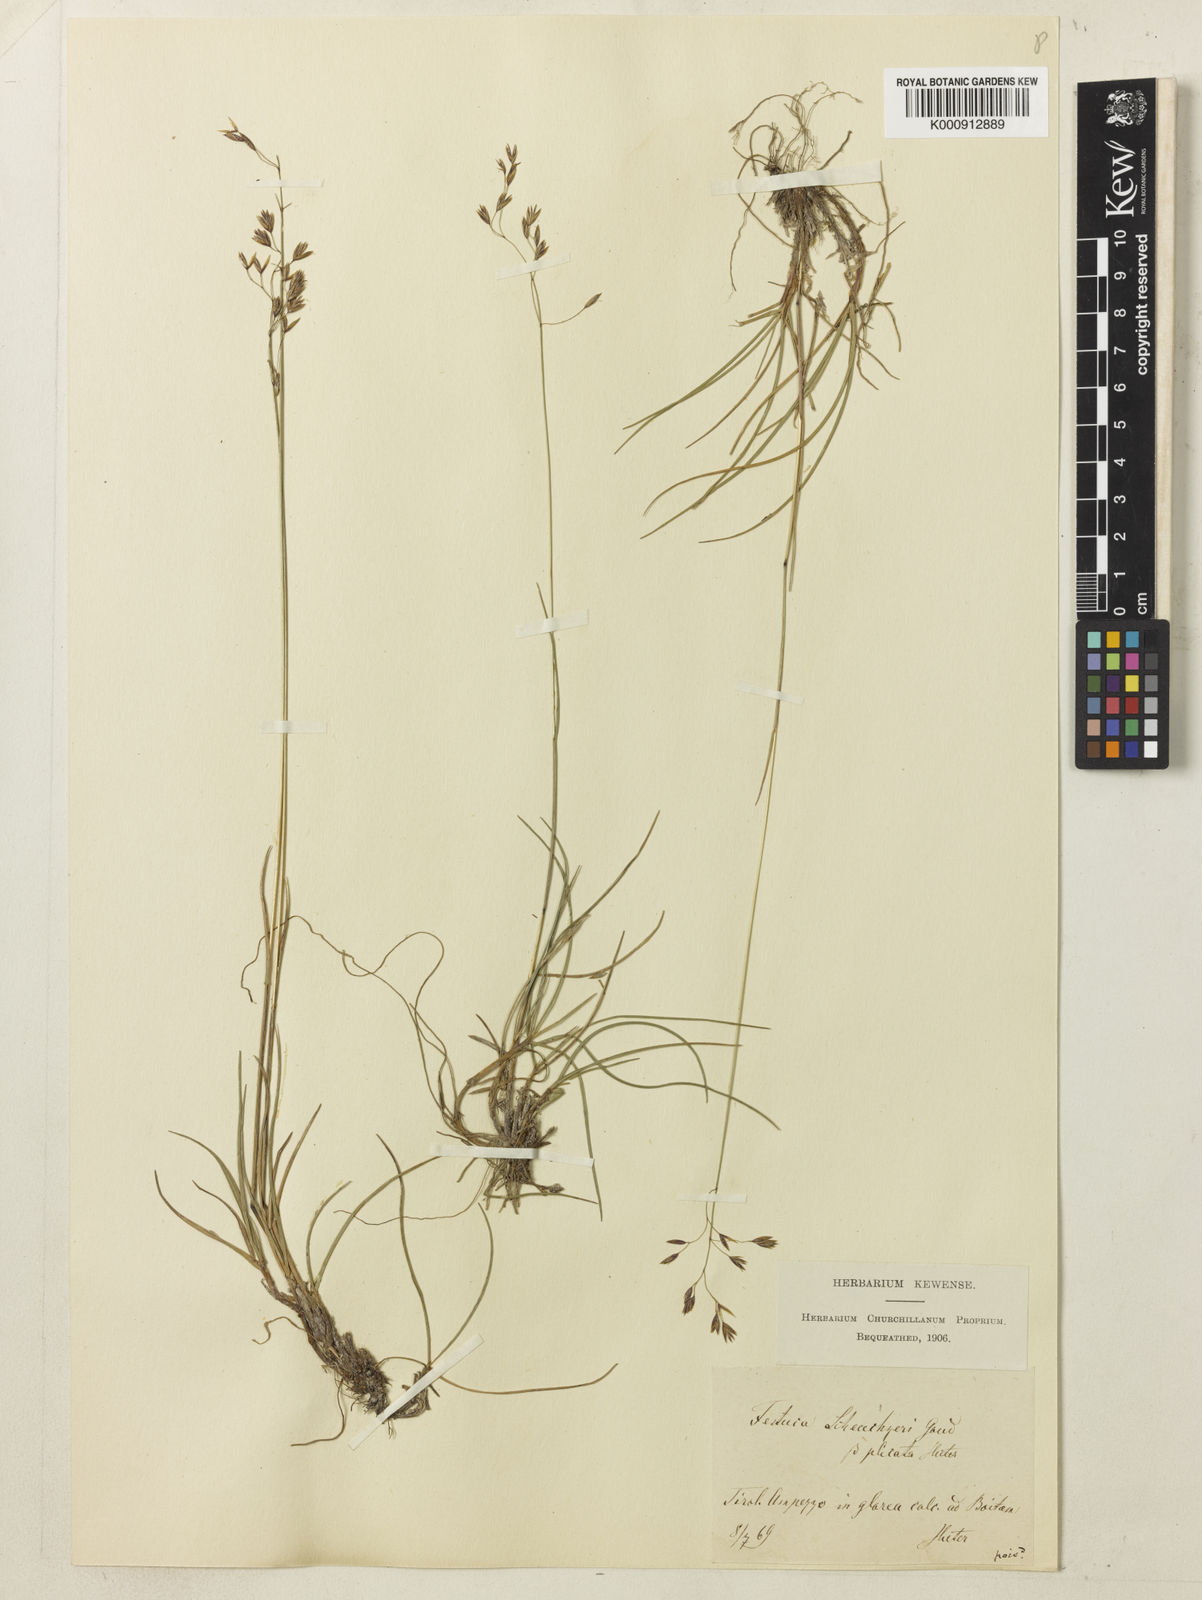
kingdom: Plantae
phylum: Tracheophyta
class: Liliopsida
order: Poales
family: Poaceae
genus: Festuca
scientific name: Festuca pulchella
